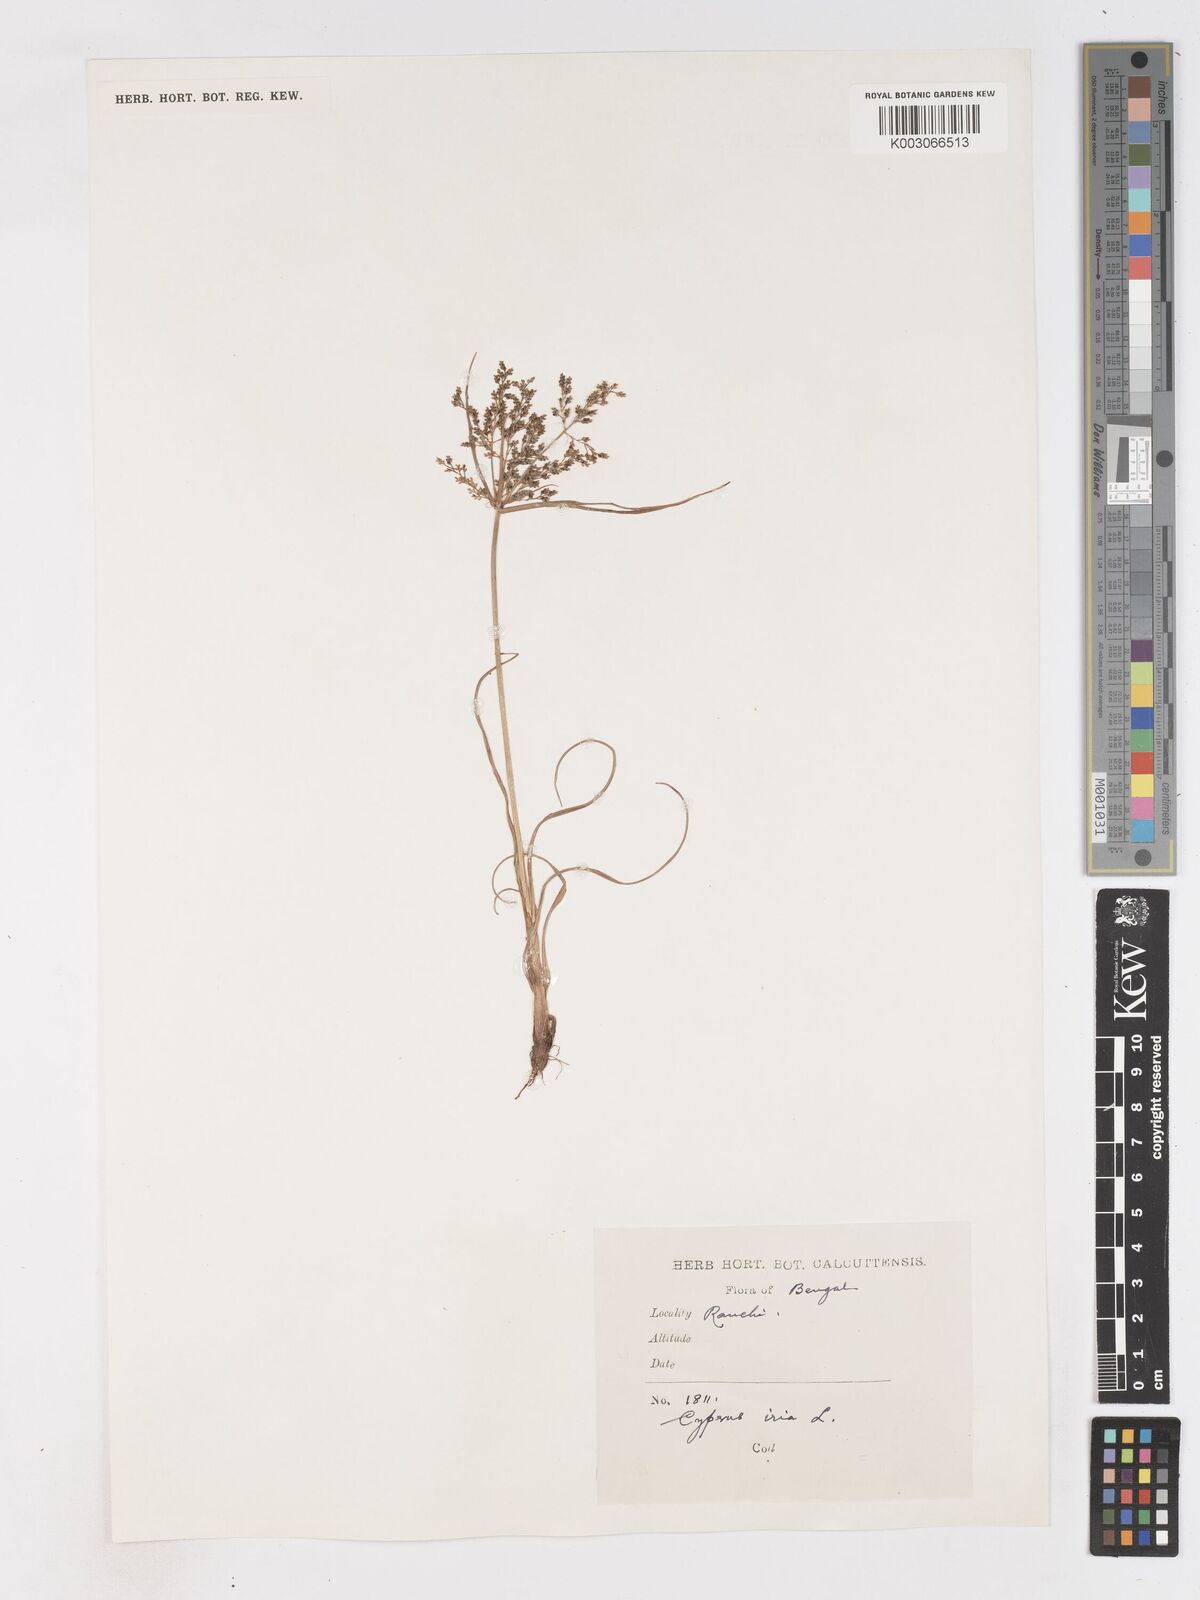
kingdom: Plantae
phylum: Tracheophyta
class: Liliopsida
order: Poales
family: Cyperaceae
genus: Cyperus
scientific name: Cyperus iria
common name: Ricefield flatsedge
